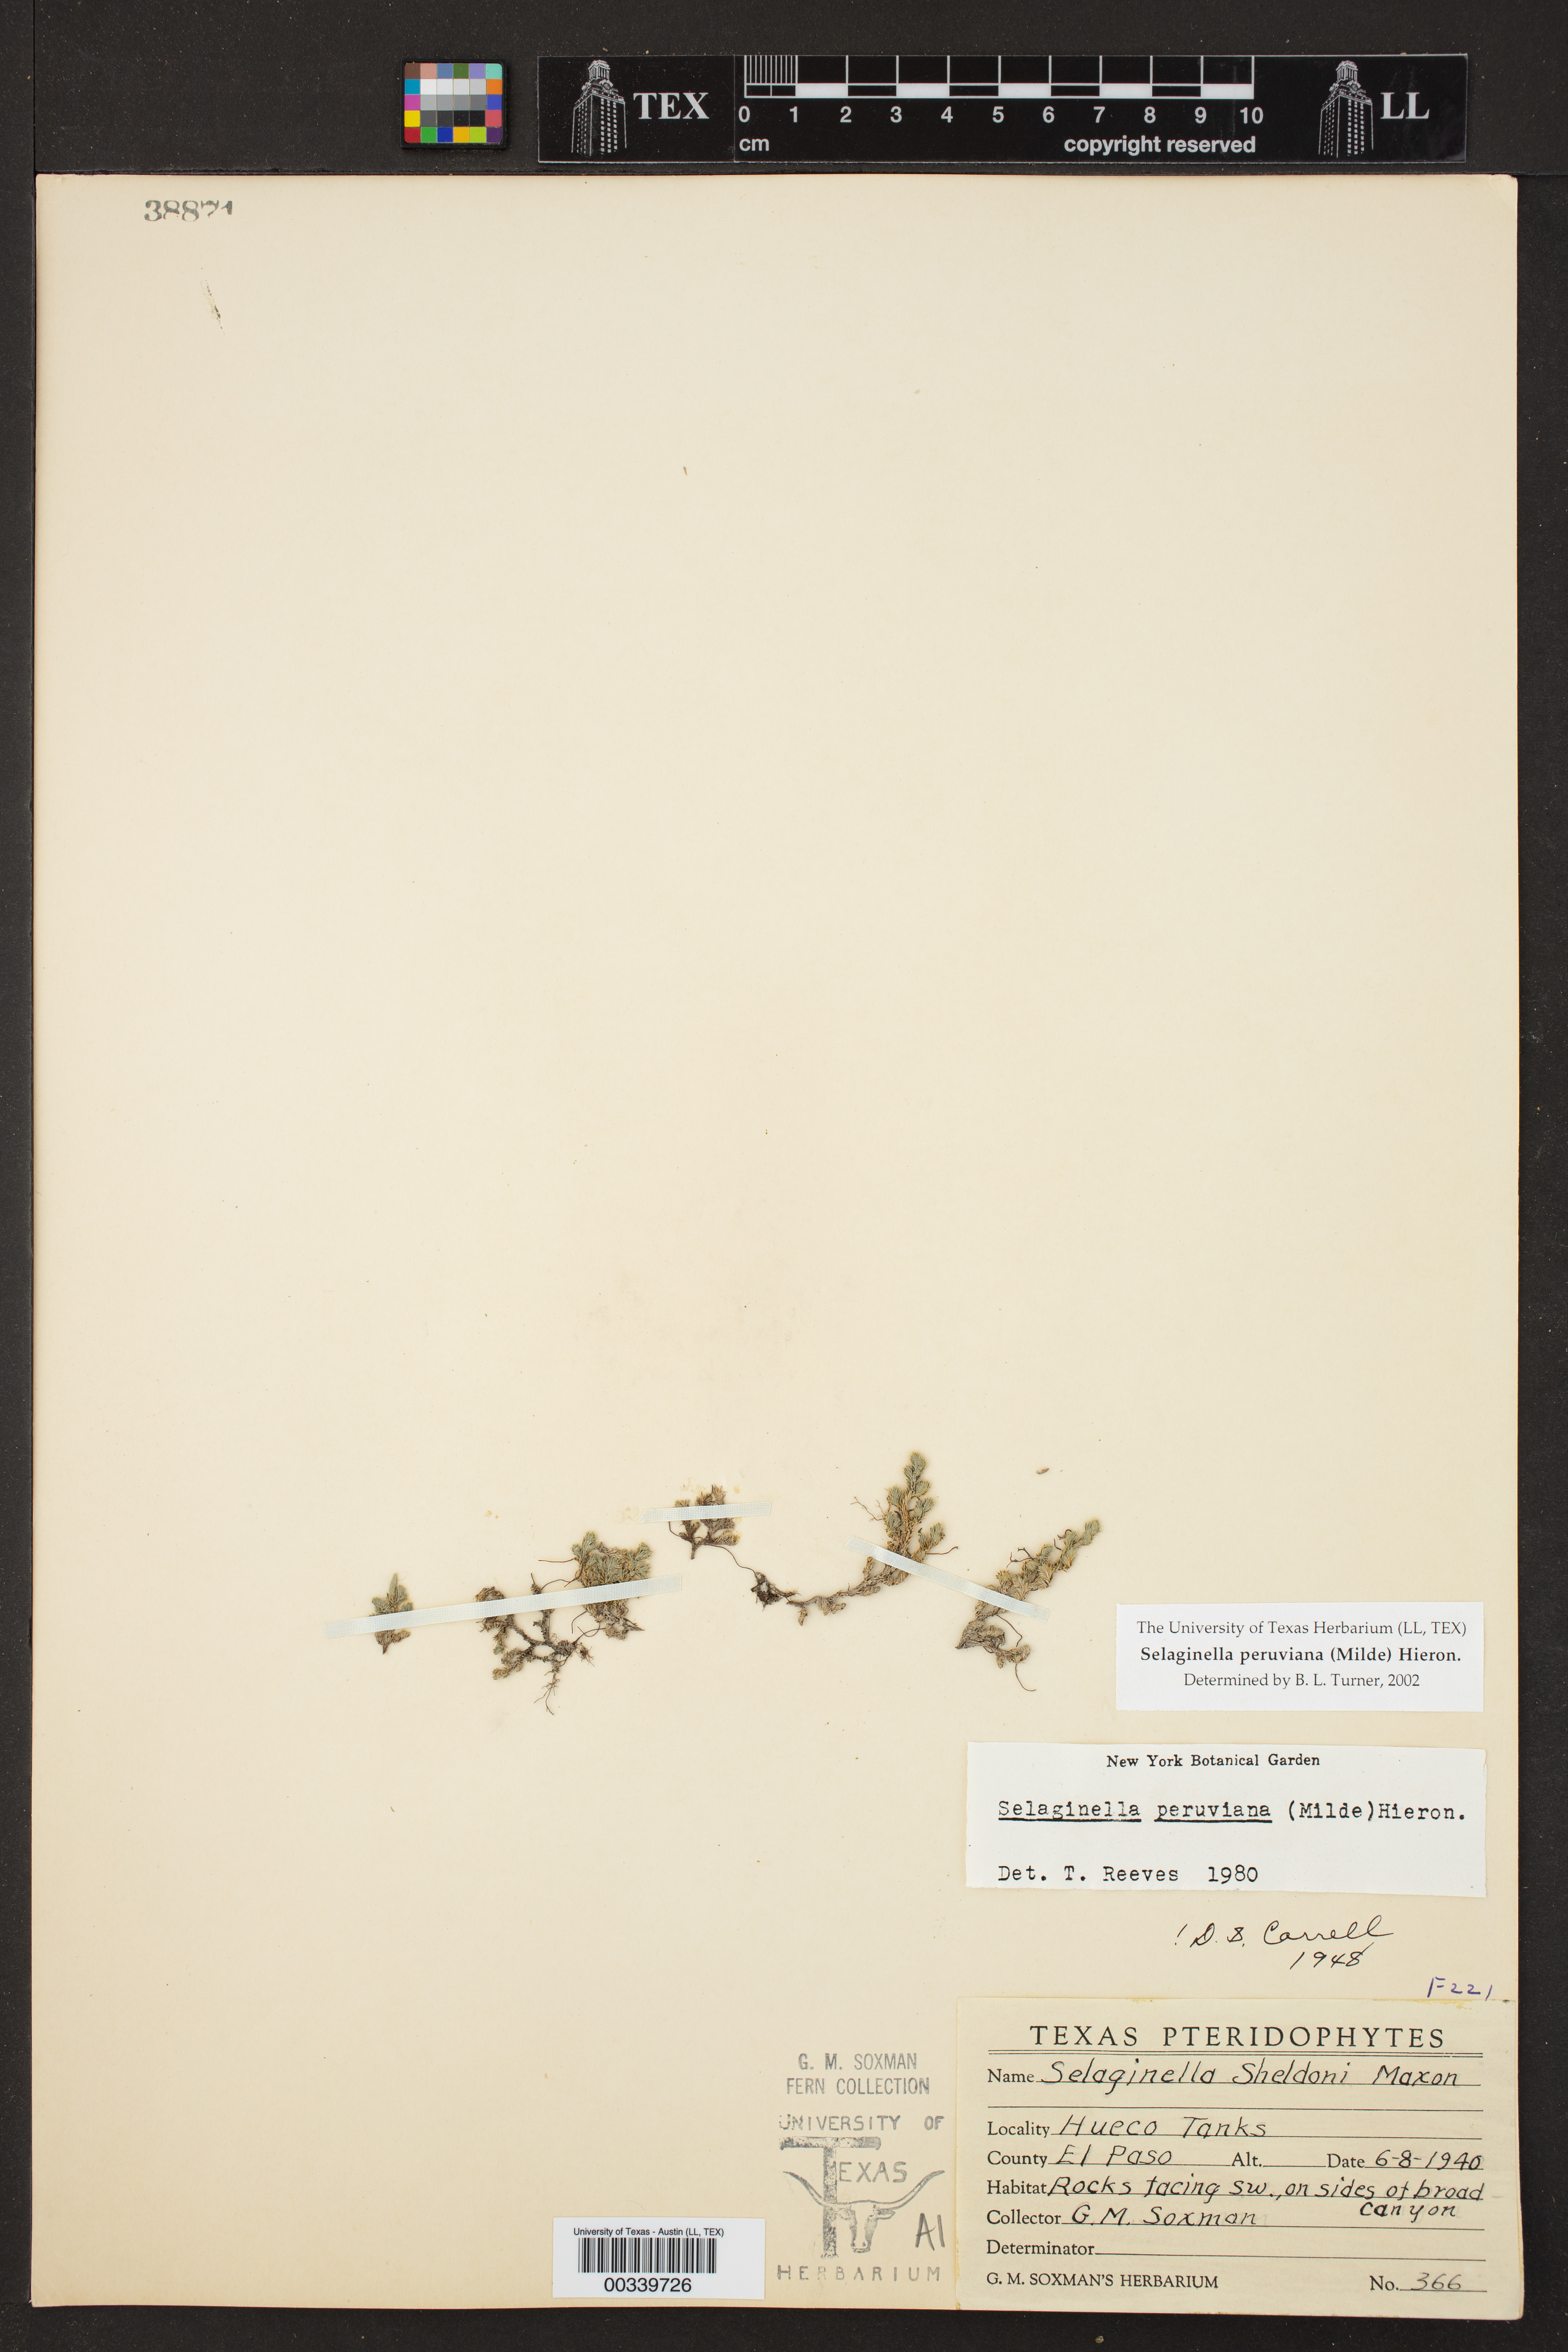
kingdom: Plantae
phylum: Tracheophyta
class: Lycopodiopsida
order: Selaginellales
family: Selaginellaceae
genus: Selaginella
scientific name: Selaginella peruviana
